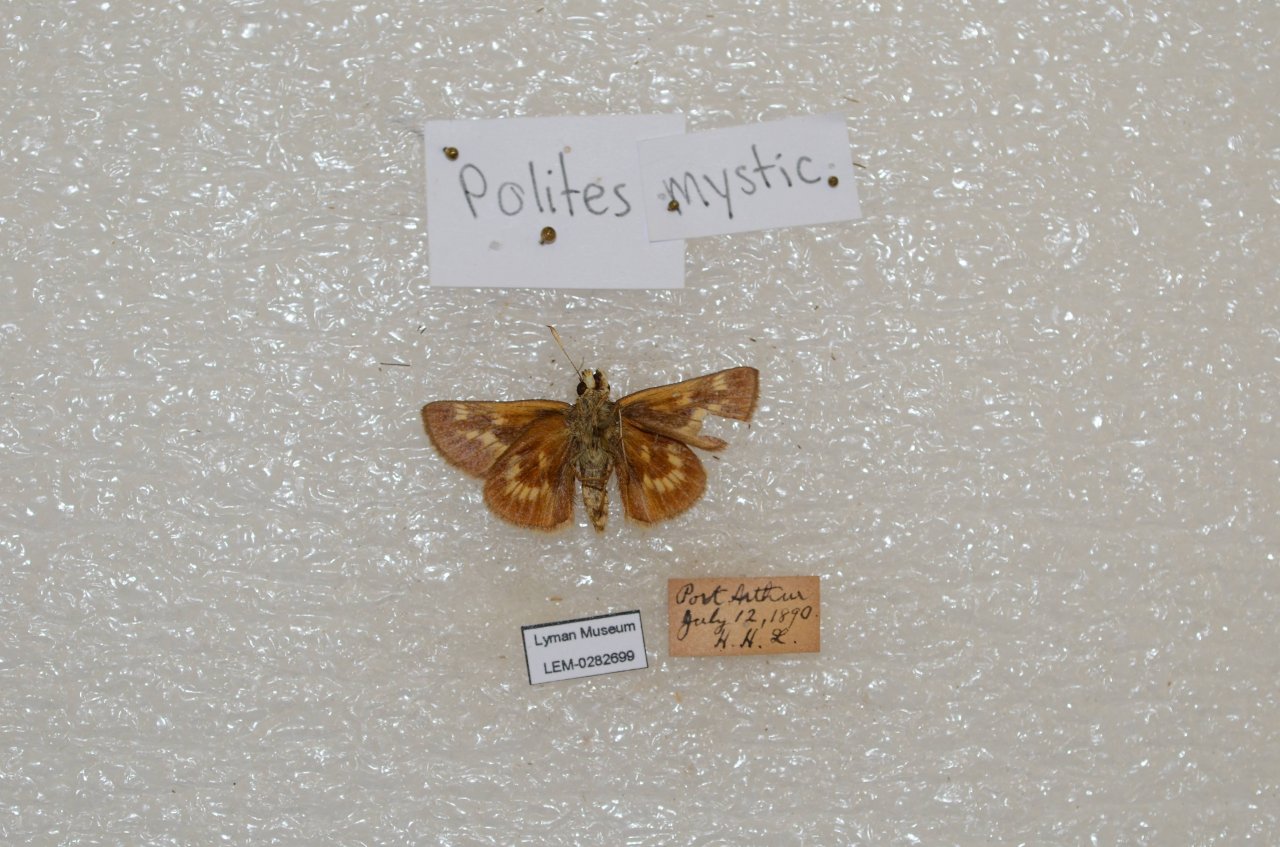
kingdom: Animalia
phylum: Arthropoda
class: Insecta
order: Lepidoptera
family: Hesperiidae
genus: Polites
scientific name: Polites
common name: Long Dash Skipper
